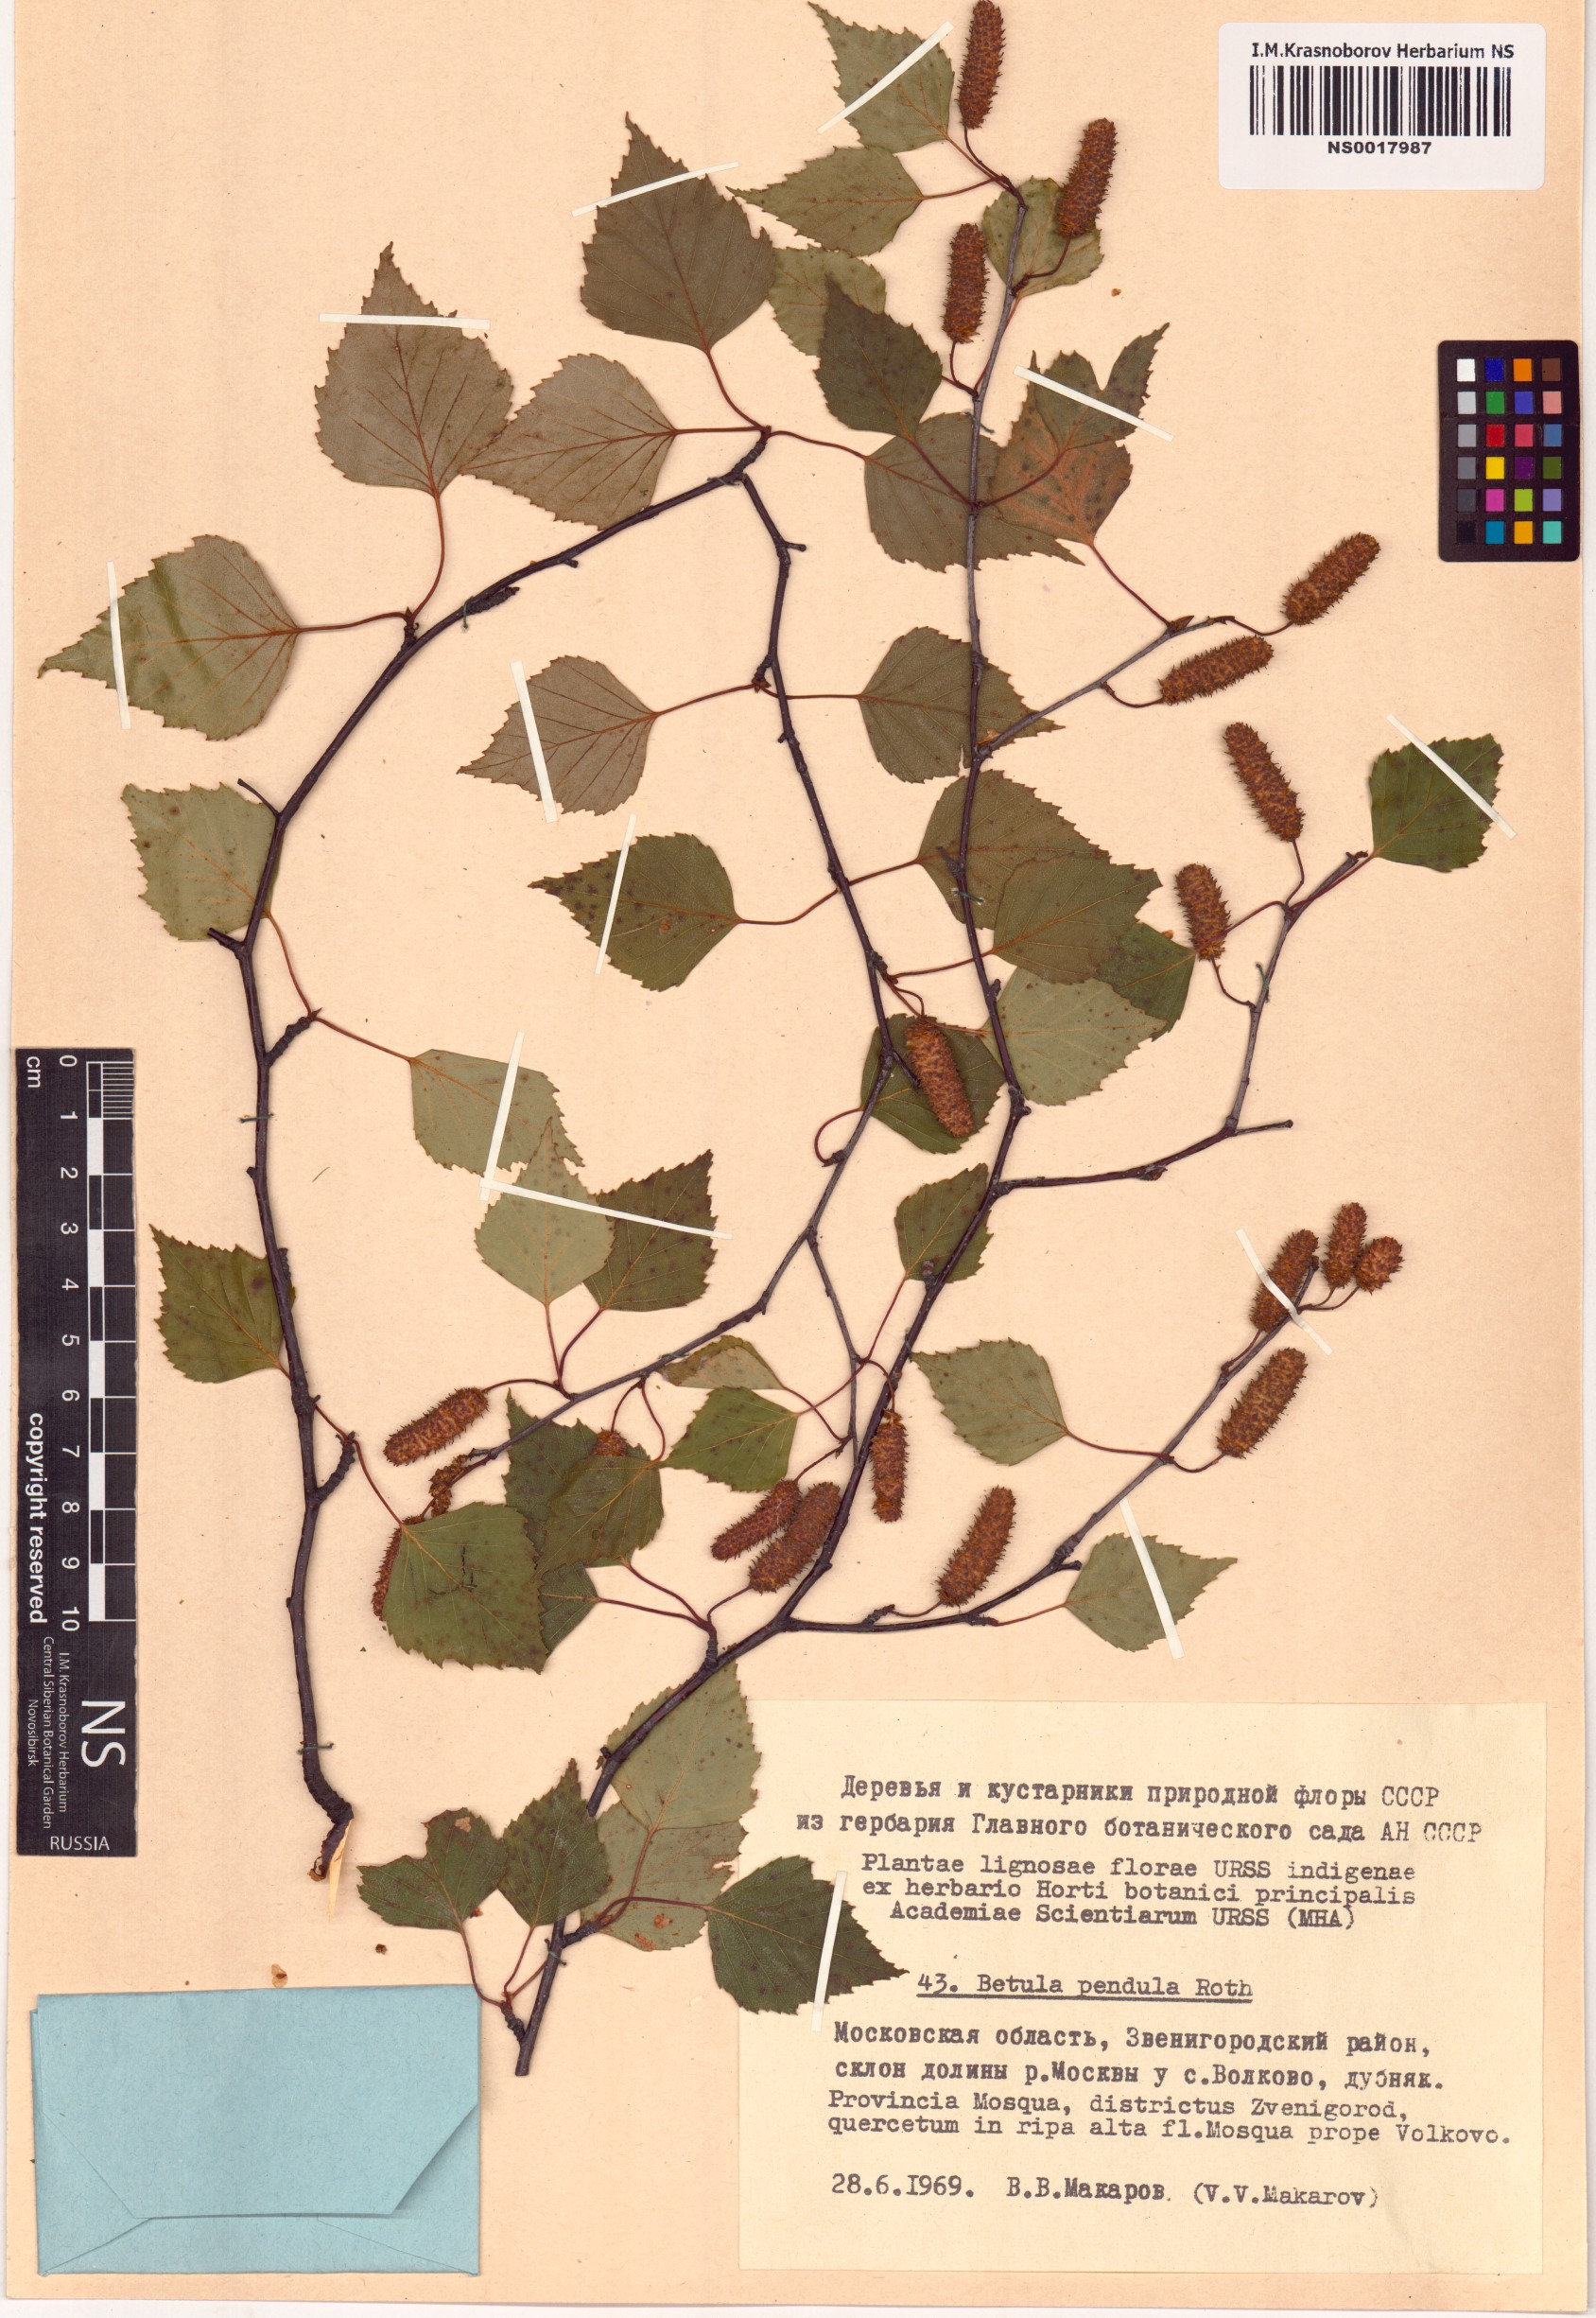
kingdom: Plantae
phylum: Tracheophyta
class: Magnoliopsida
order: Fagales
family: Betulaceae
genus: Betula
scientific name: Betula pendula
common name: Silver birch
